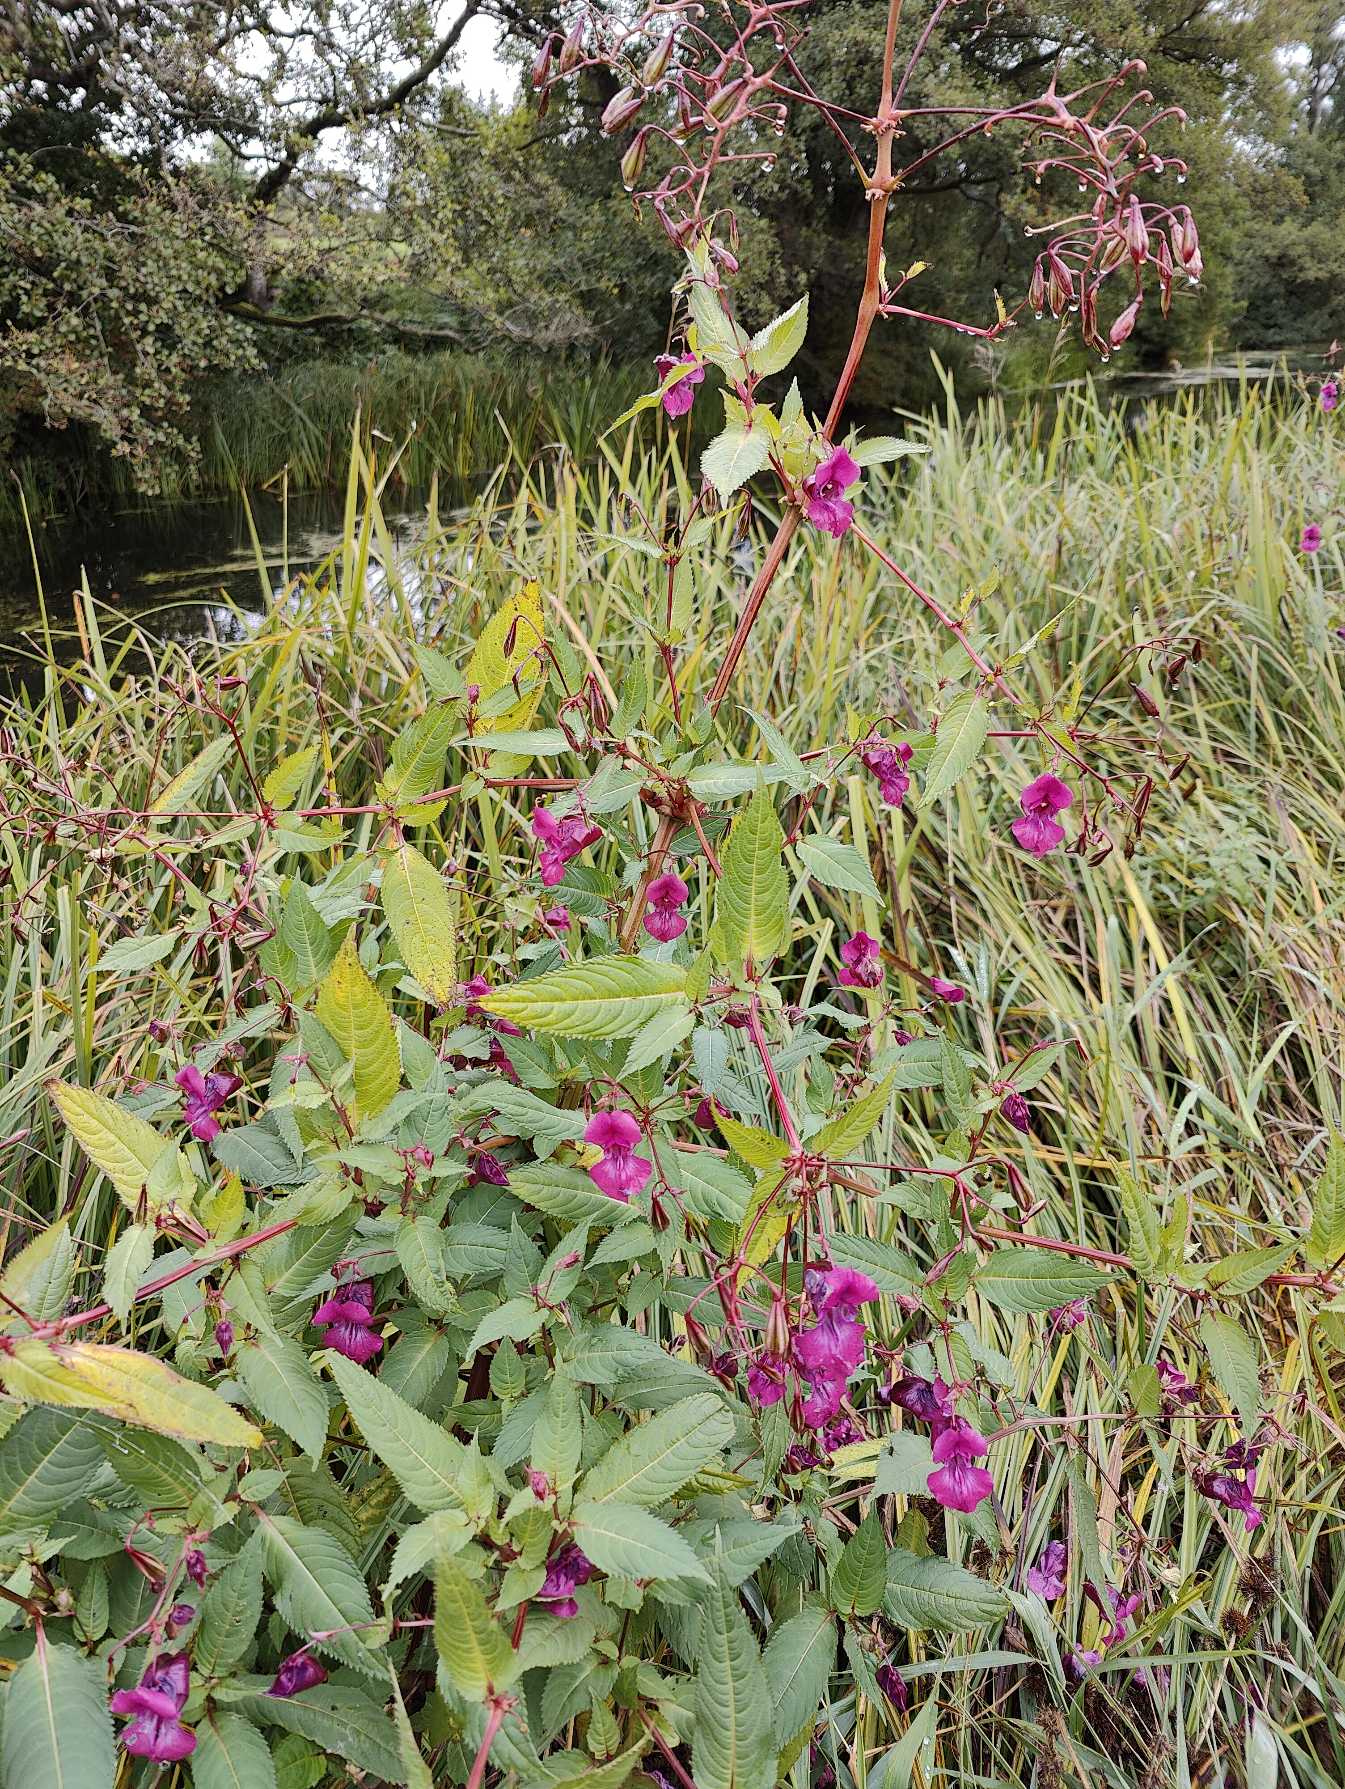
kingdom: Plantae
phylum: Tracheophyta
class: Magnoliopsida
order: Ericales
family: Balsaminaceae
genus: Impatiens
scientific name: Impatiens glandulifera
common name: Kæmpe-balsamin
